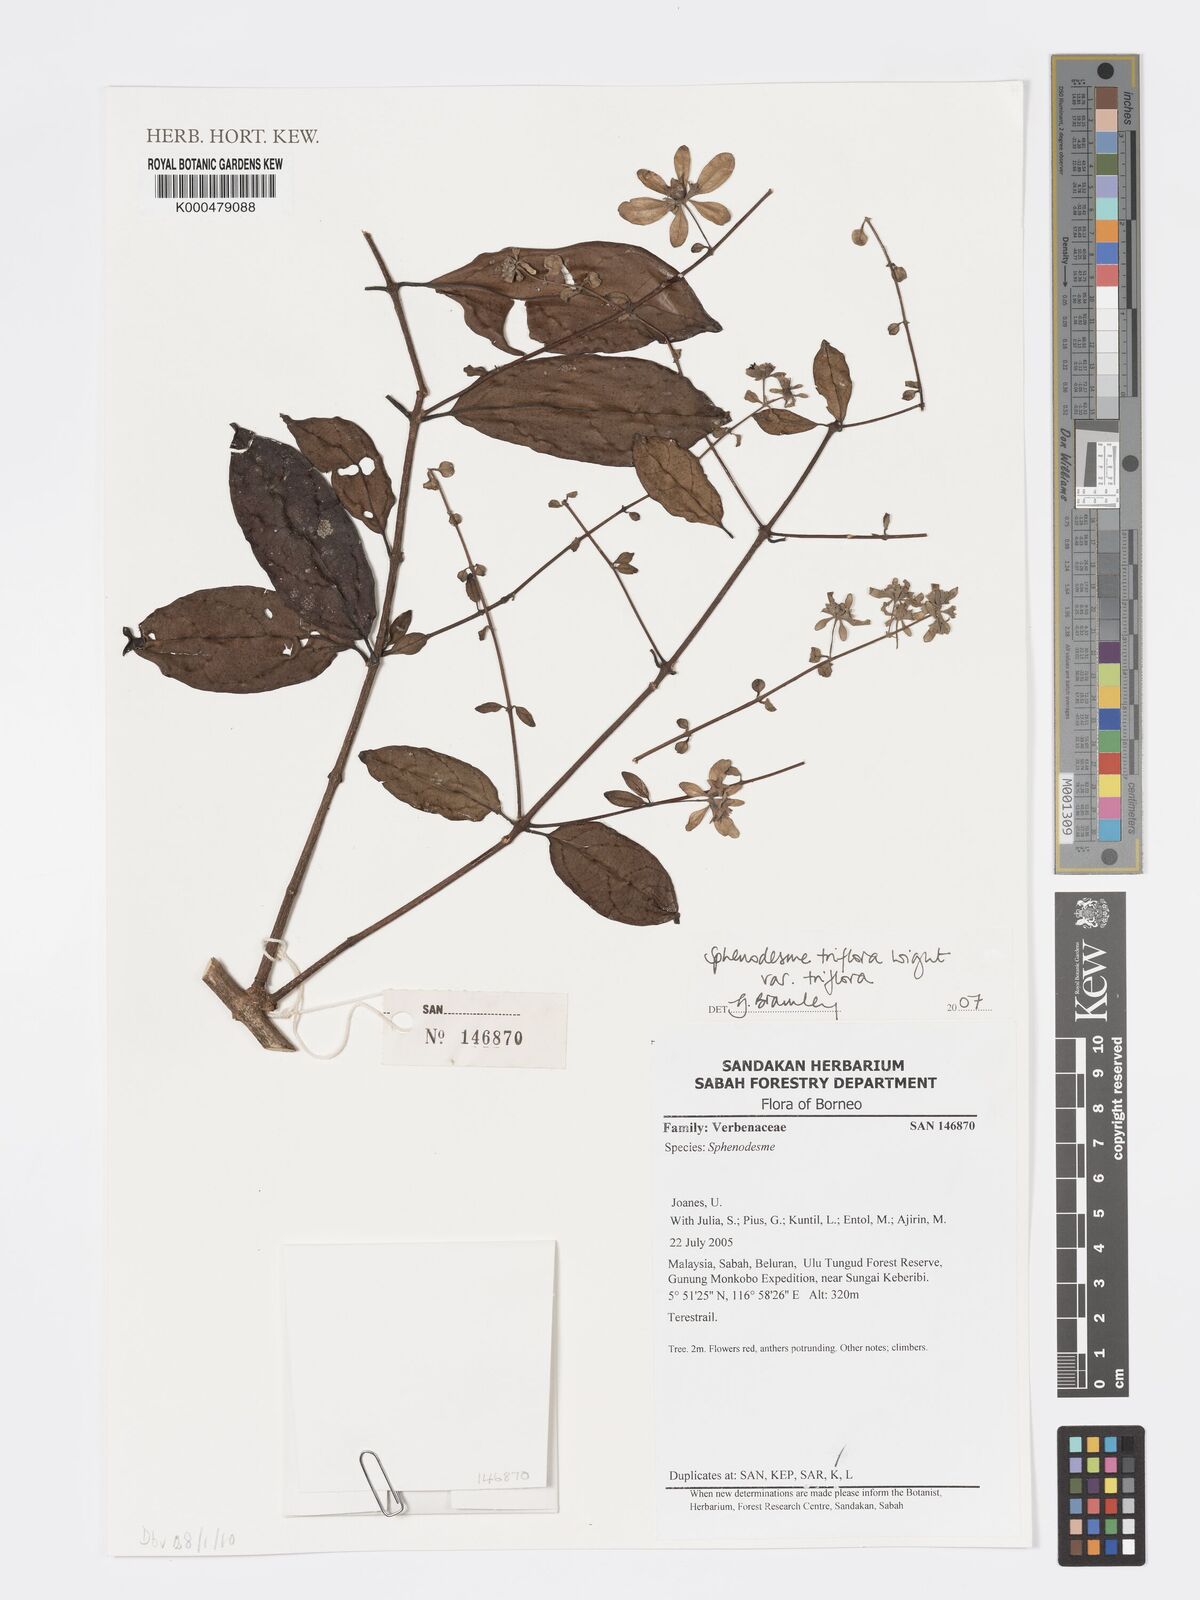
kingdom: Plantae
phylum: Tracheophyta
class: Magnoliopsida
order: Lamiales
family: Lamiaceae
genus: Sphenodesme
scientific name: Sphenodesme triflora
